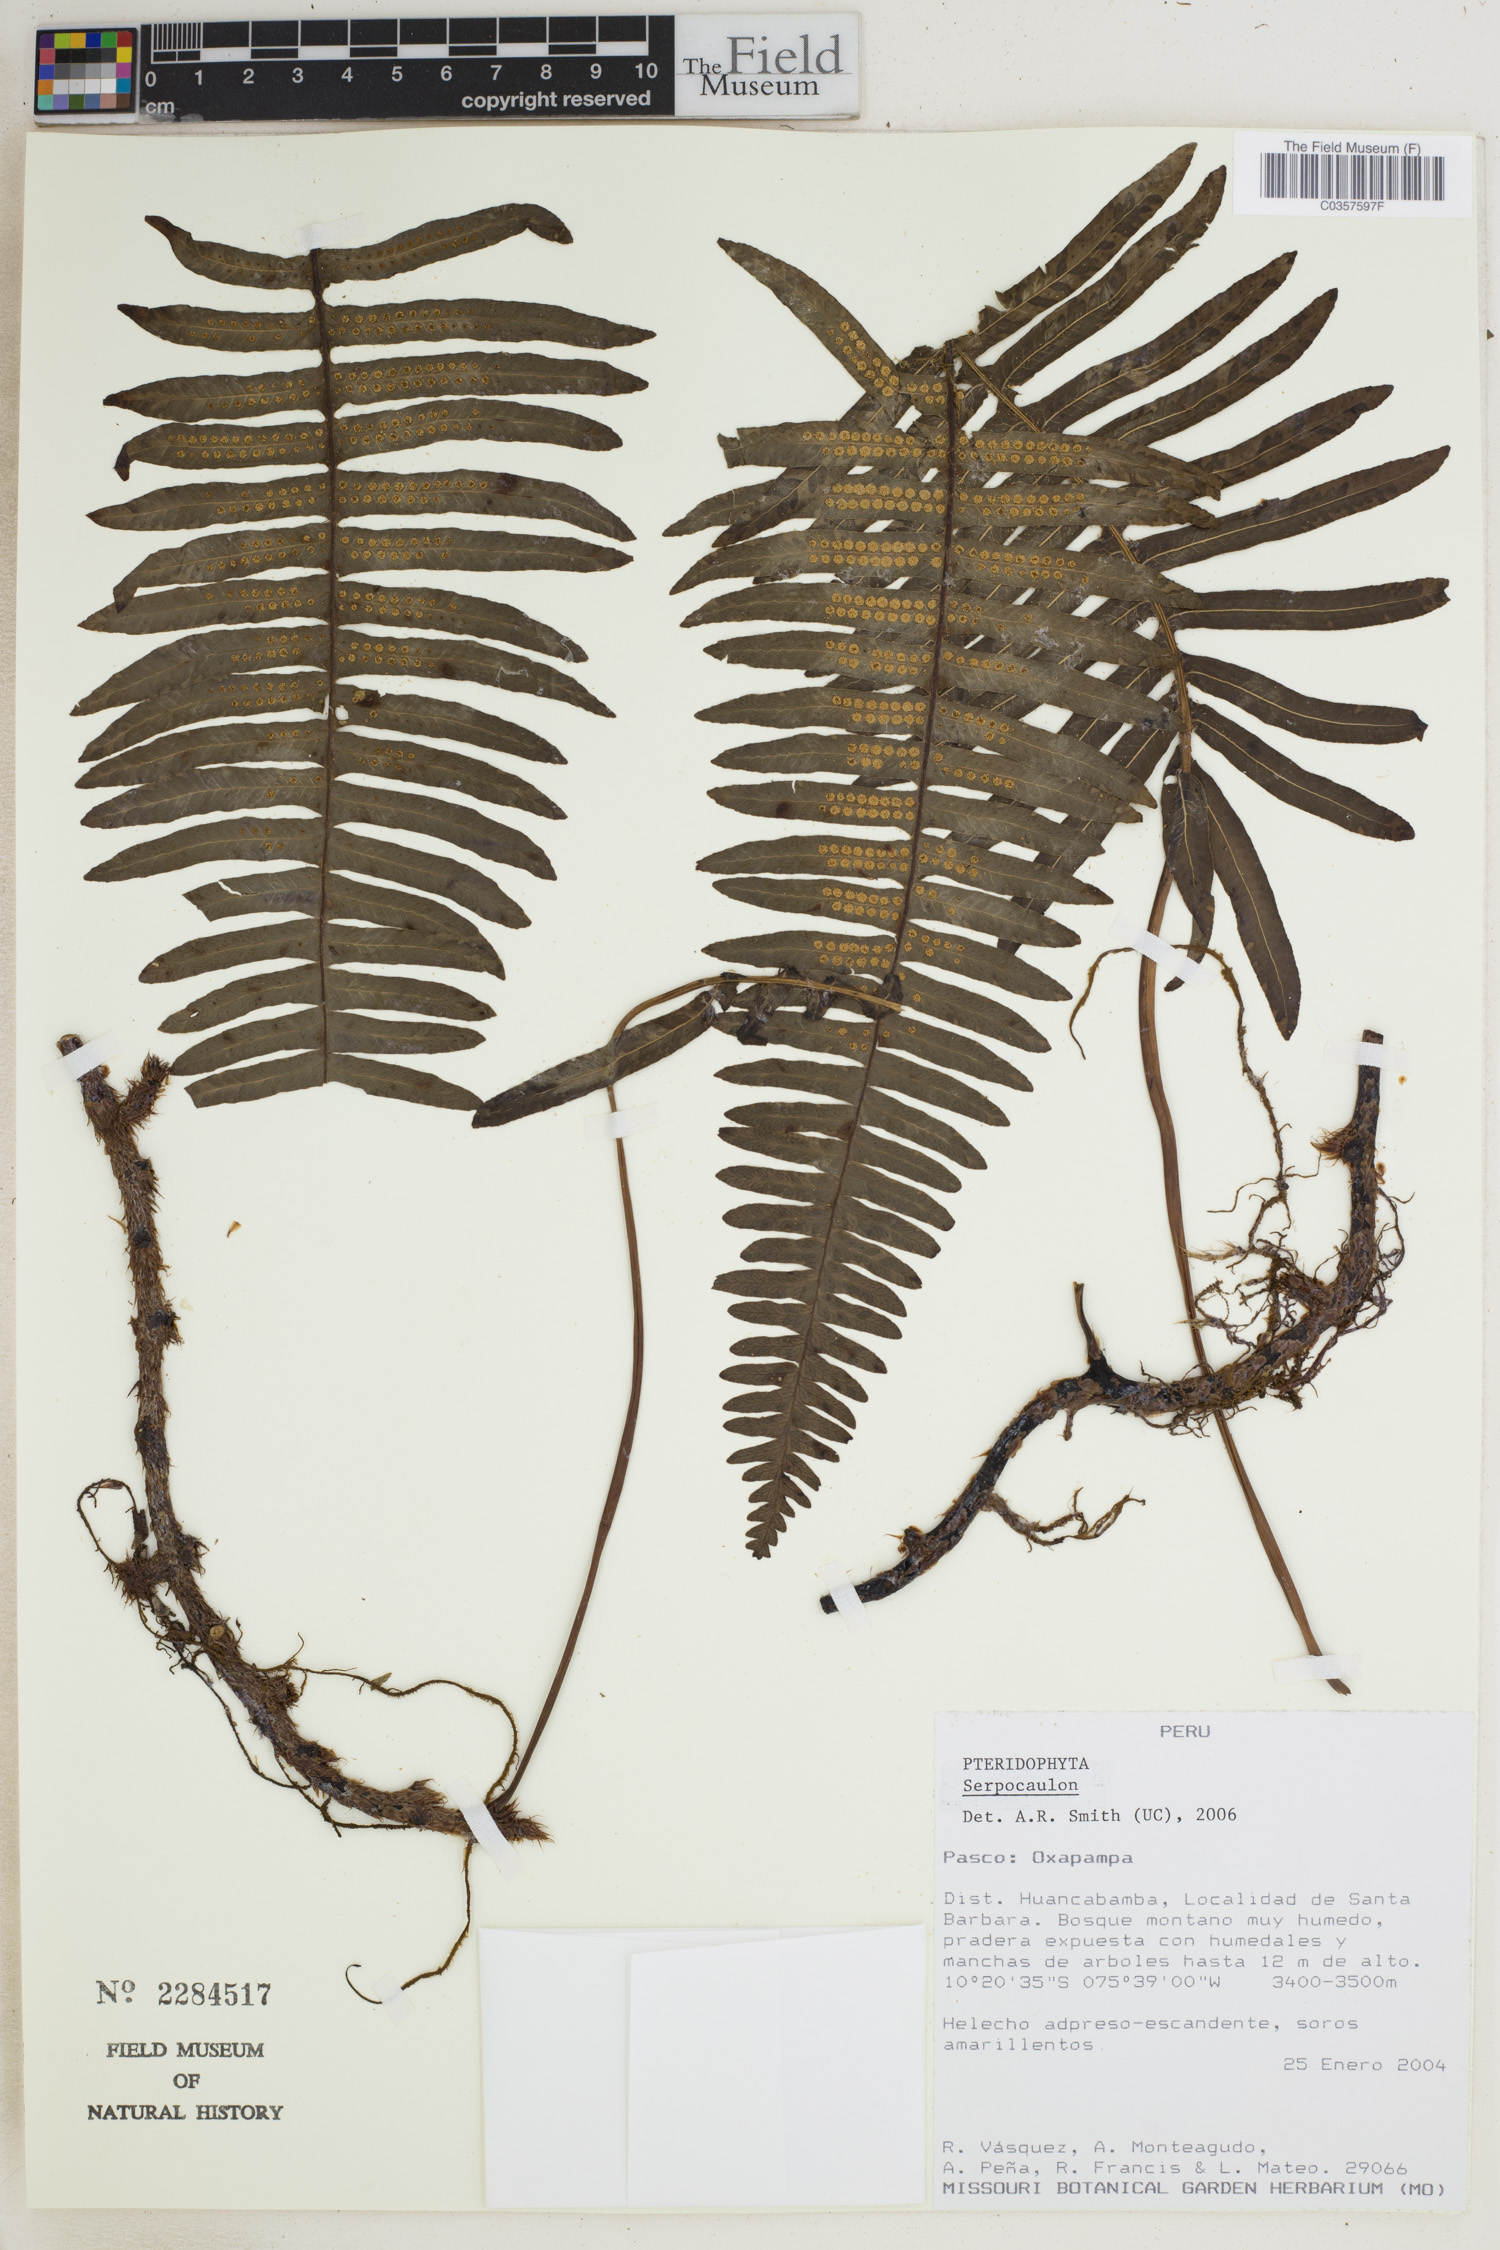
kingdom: Plantae
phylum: Tracheophyta
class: Polypodiopsida
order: Polypodiales
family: Polypodiaceae
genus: Serpocaulon
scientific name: Serpocaulon
